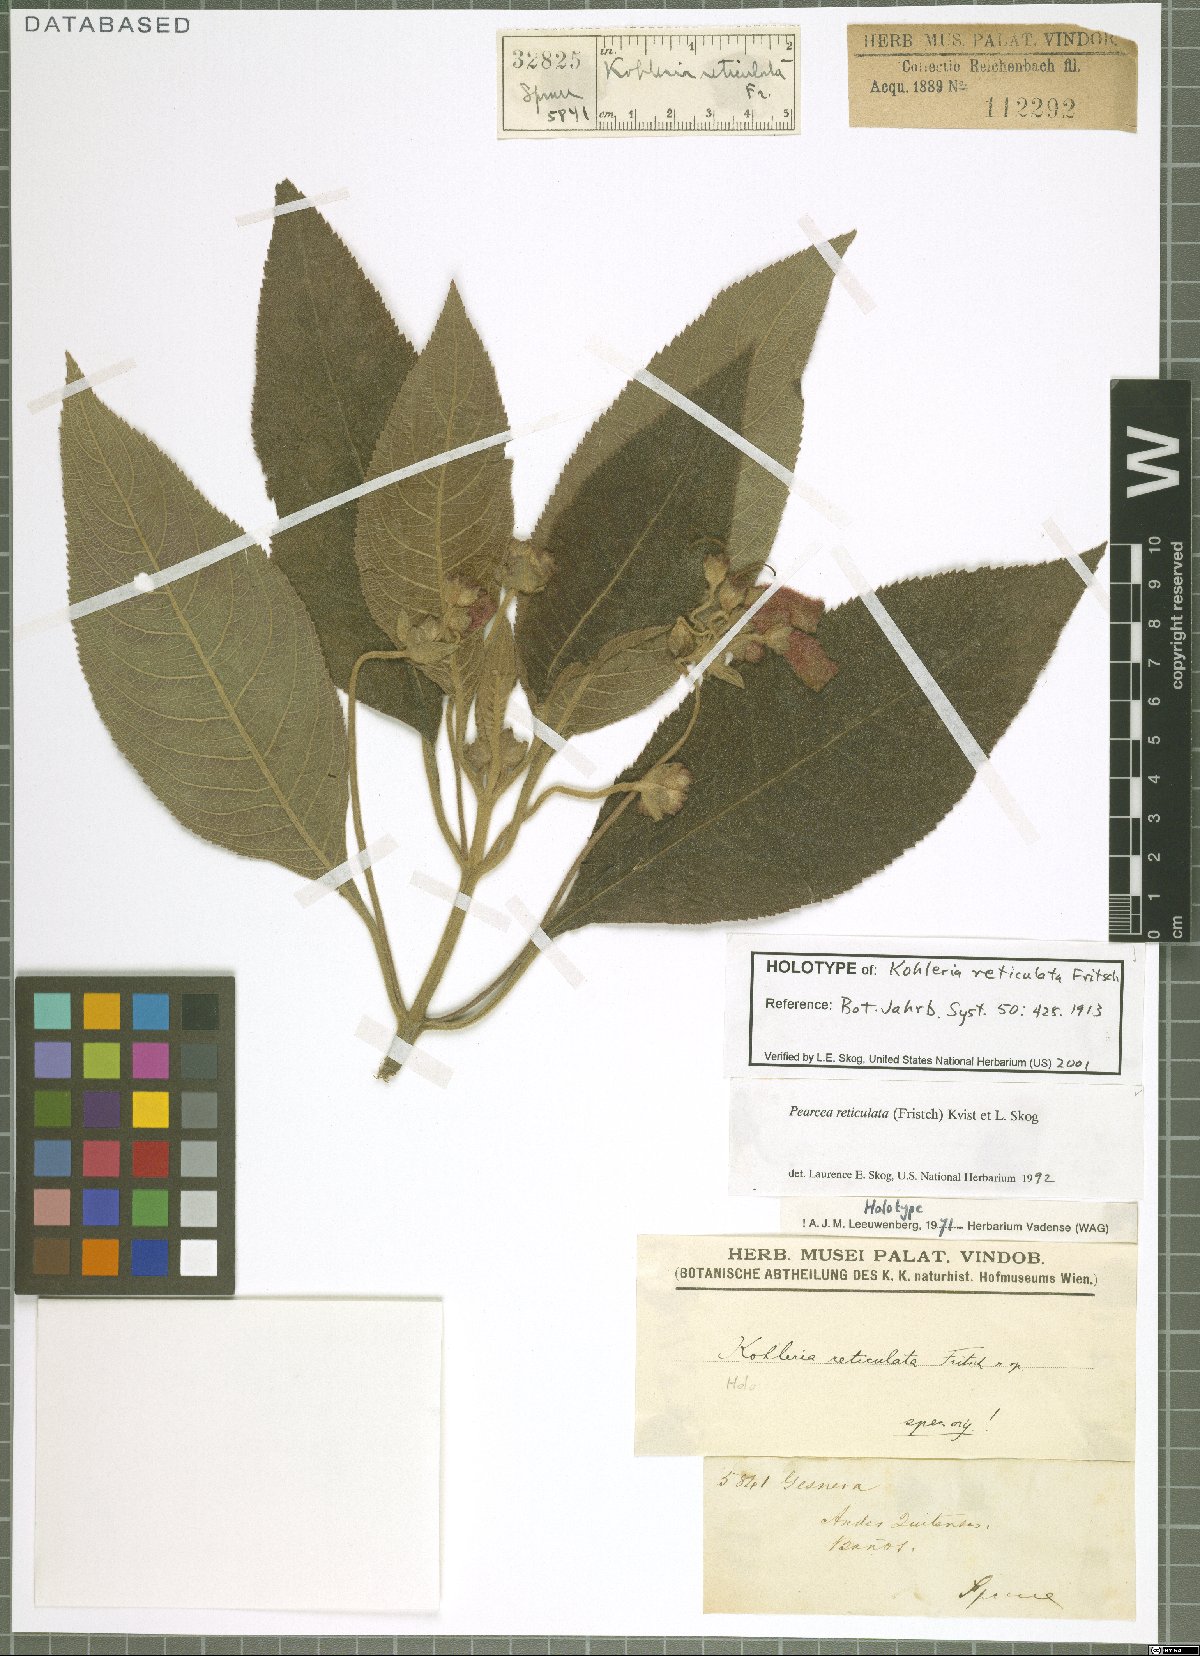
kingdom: Plantae
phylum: Tracheophyta
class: Magnoliopsida
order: Lamiales
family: Gesneriaceae
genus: Pearcea
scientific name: Pearcea reticulata
